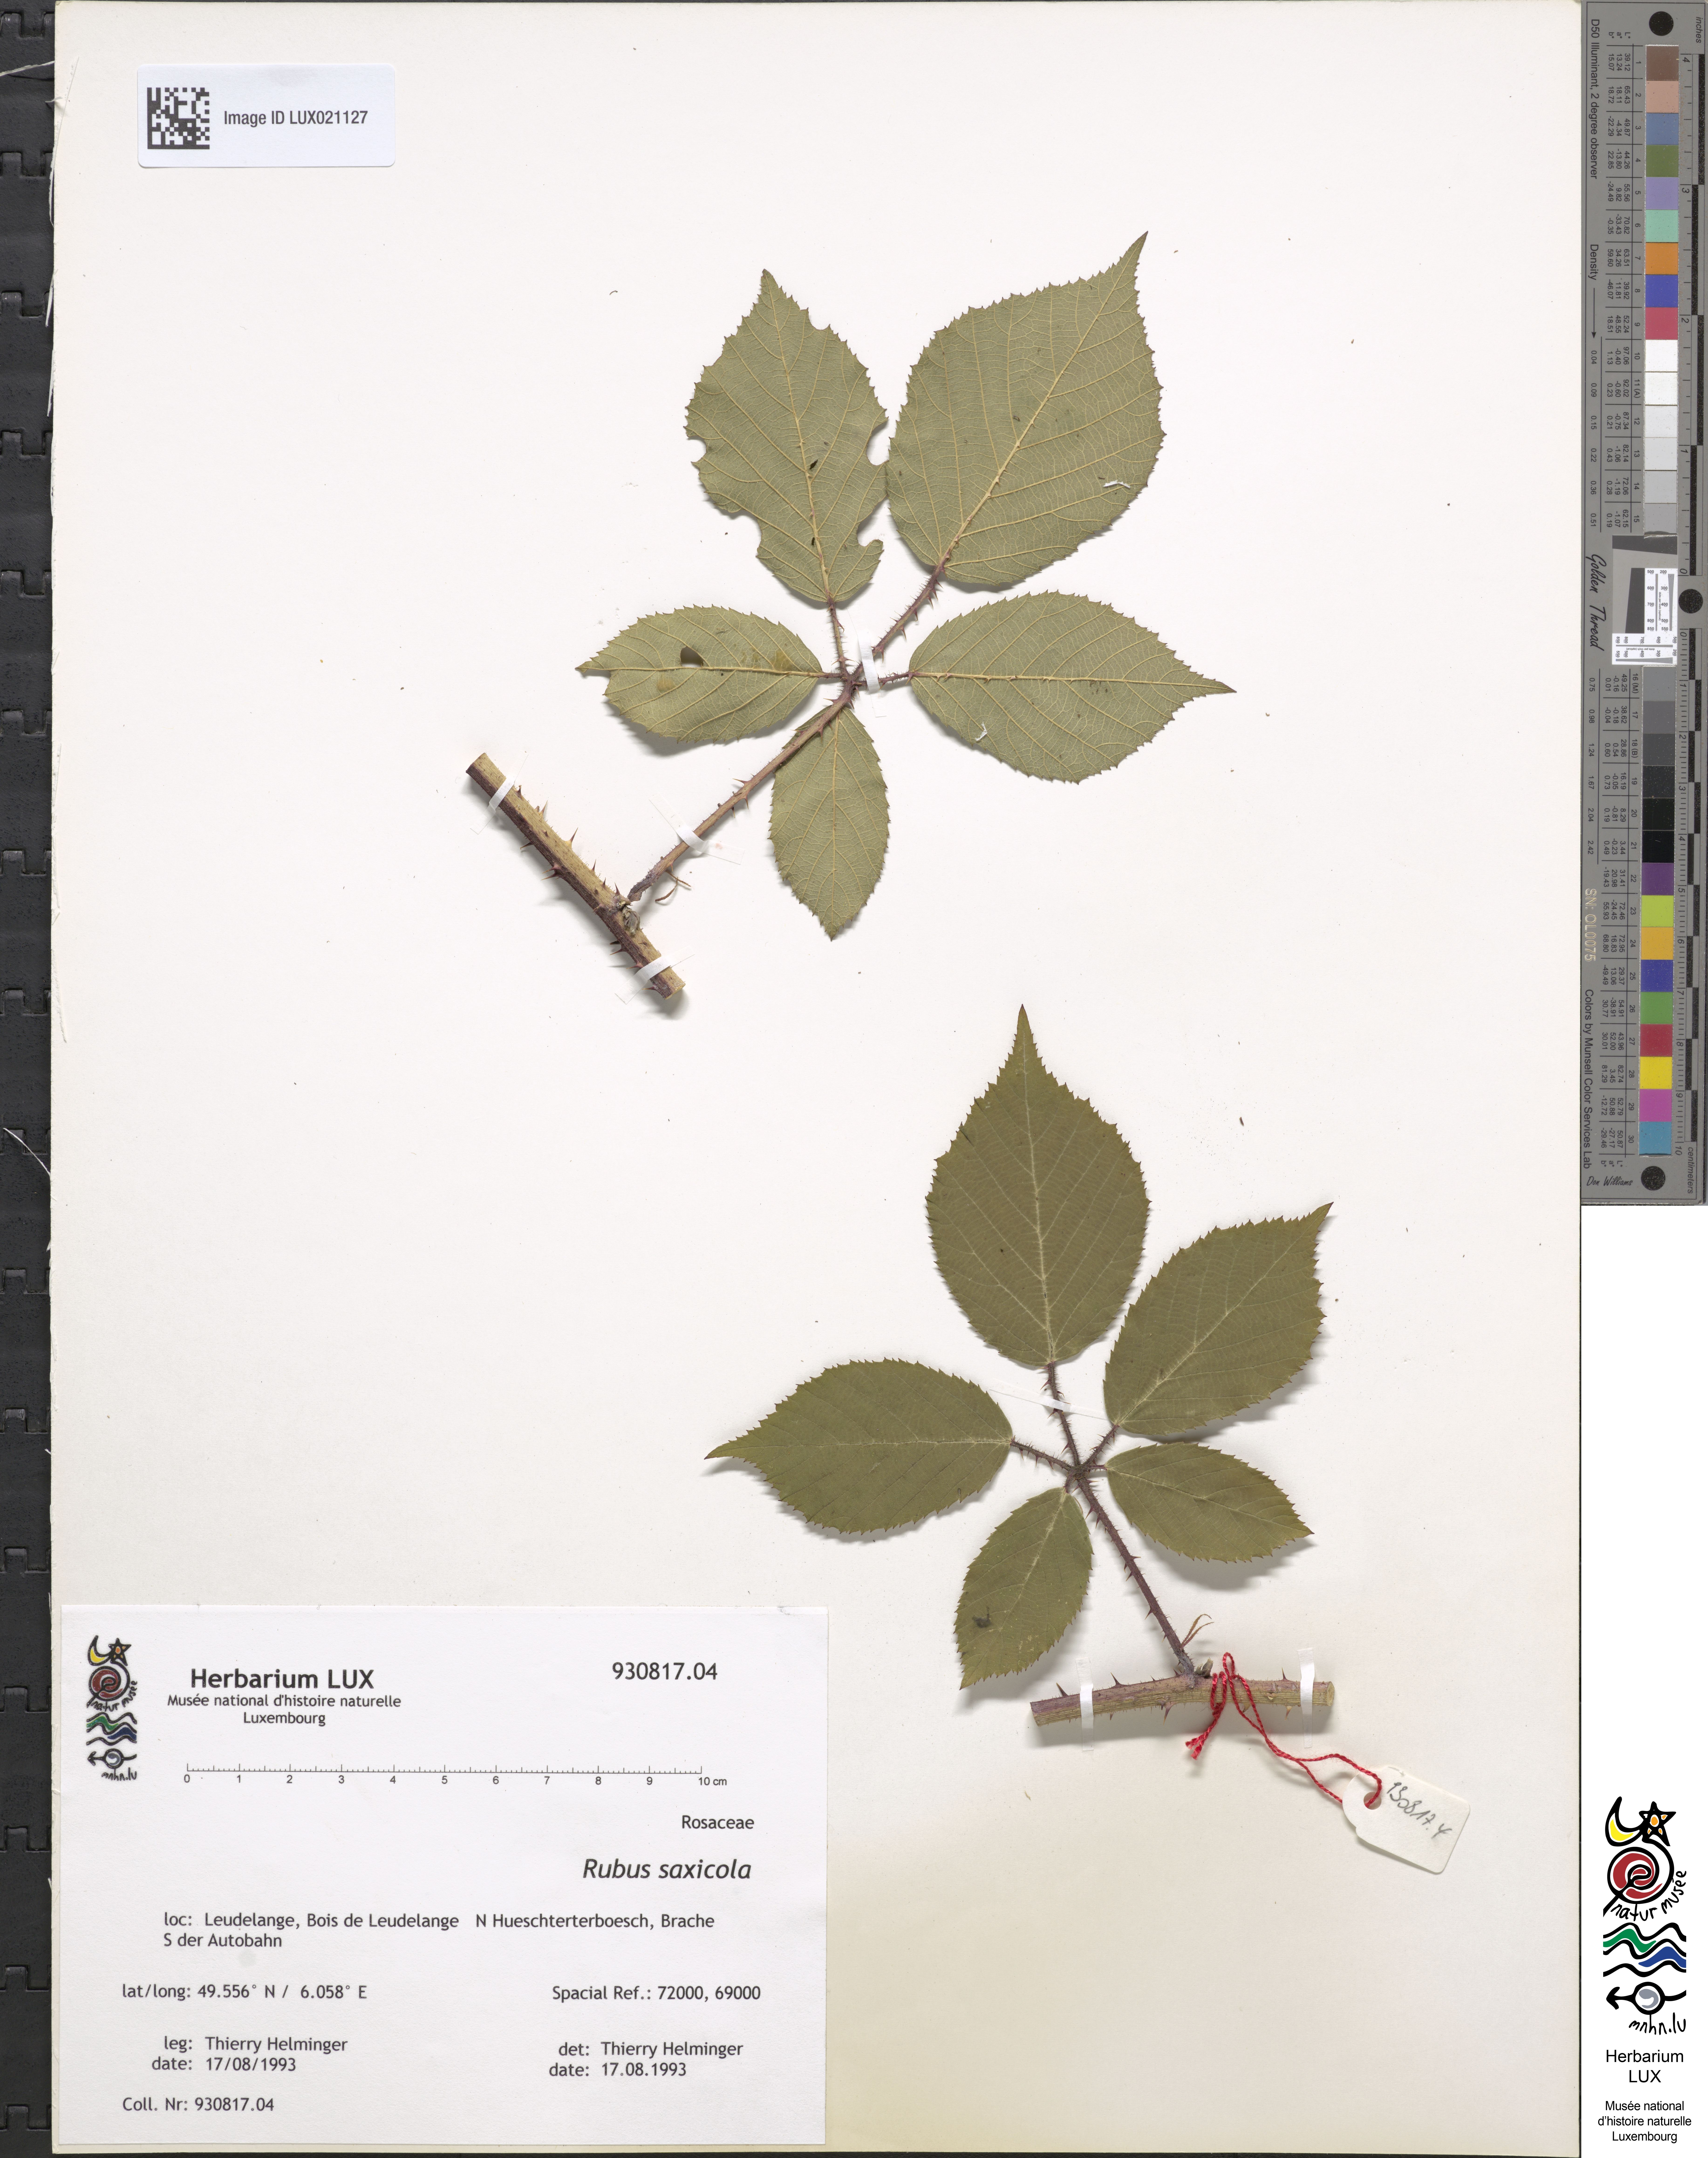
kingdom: Plantae
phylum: Tracheophyta
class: Magnoliopsida
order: Rosales
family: Rosaceae
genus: Rubus
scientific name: Rubus saxicola
